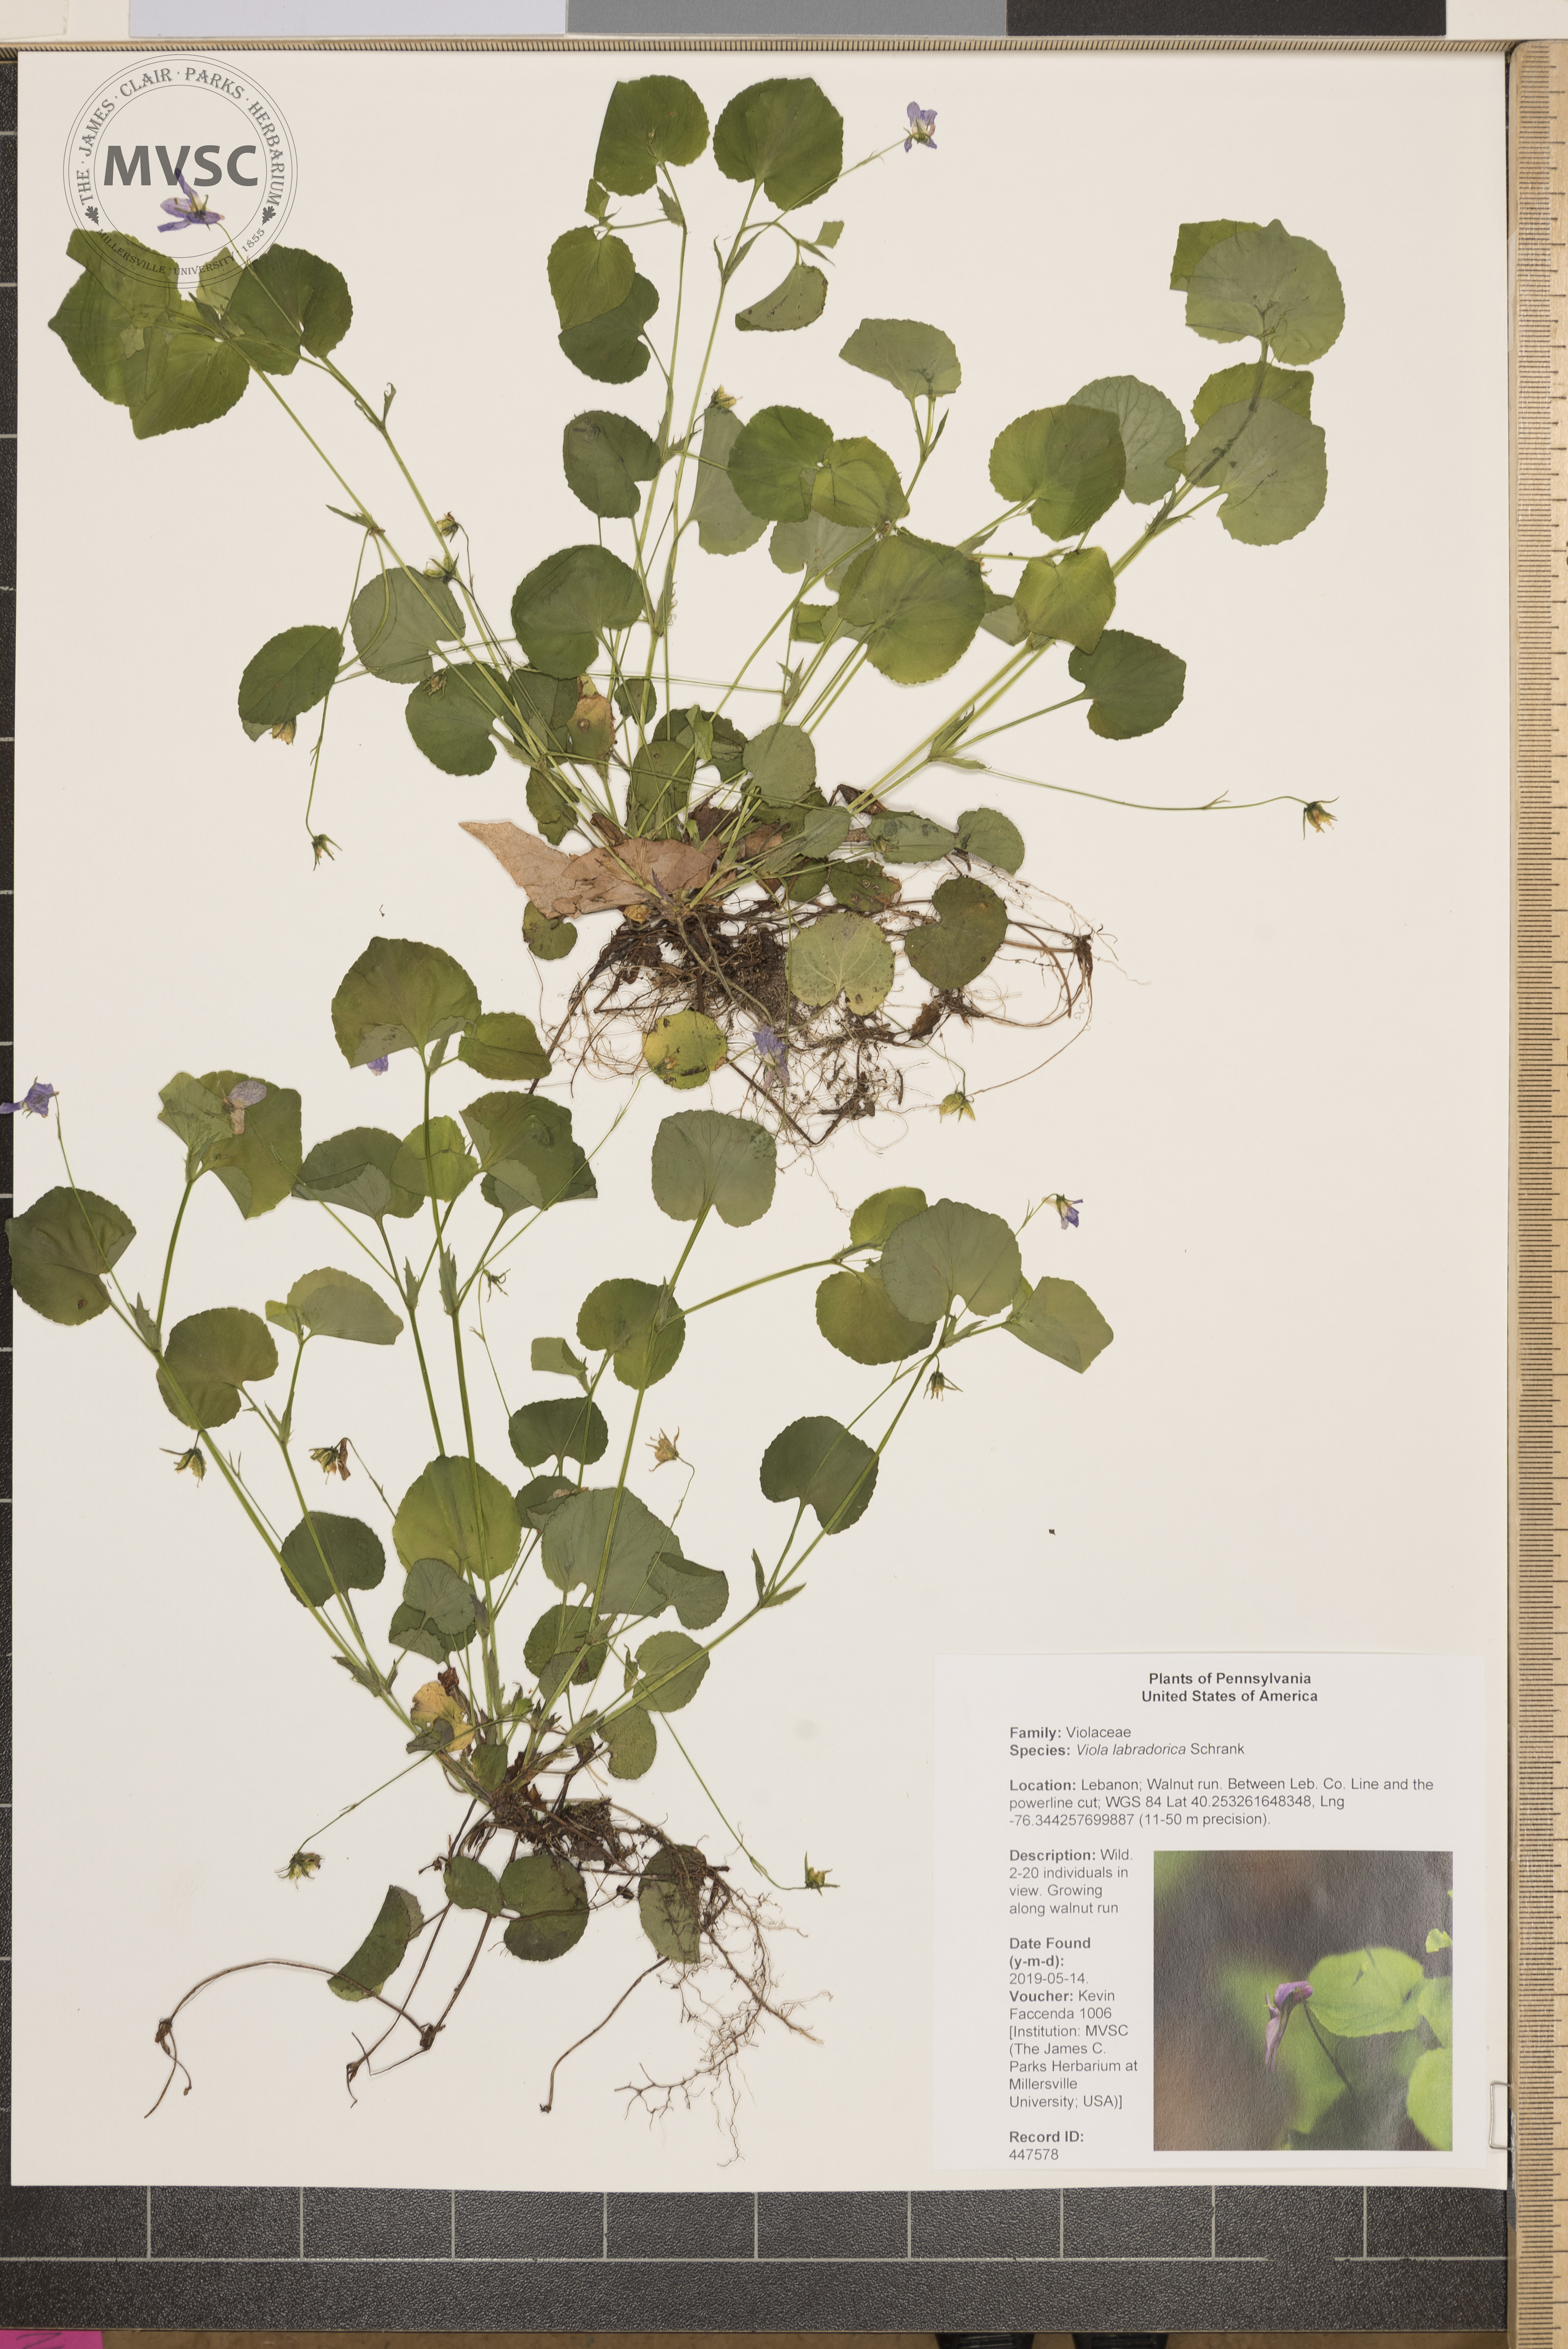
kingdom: Plantae
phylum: Tracheophyta
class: Magnoliopsida
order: Malpighiales
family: Violaceae
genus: Viola
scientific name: Viola labradorica
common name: Labrador violet
